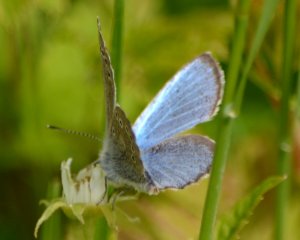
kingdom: Animalia
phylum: Arthropoda
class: Insecta
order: Lepidoptera
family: Lycaenidae
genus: Glaucopsyche
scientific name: Glaucopsyche lygdamus
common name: Silvery Blue
